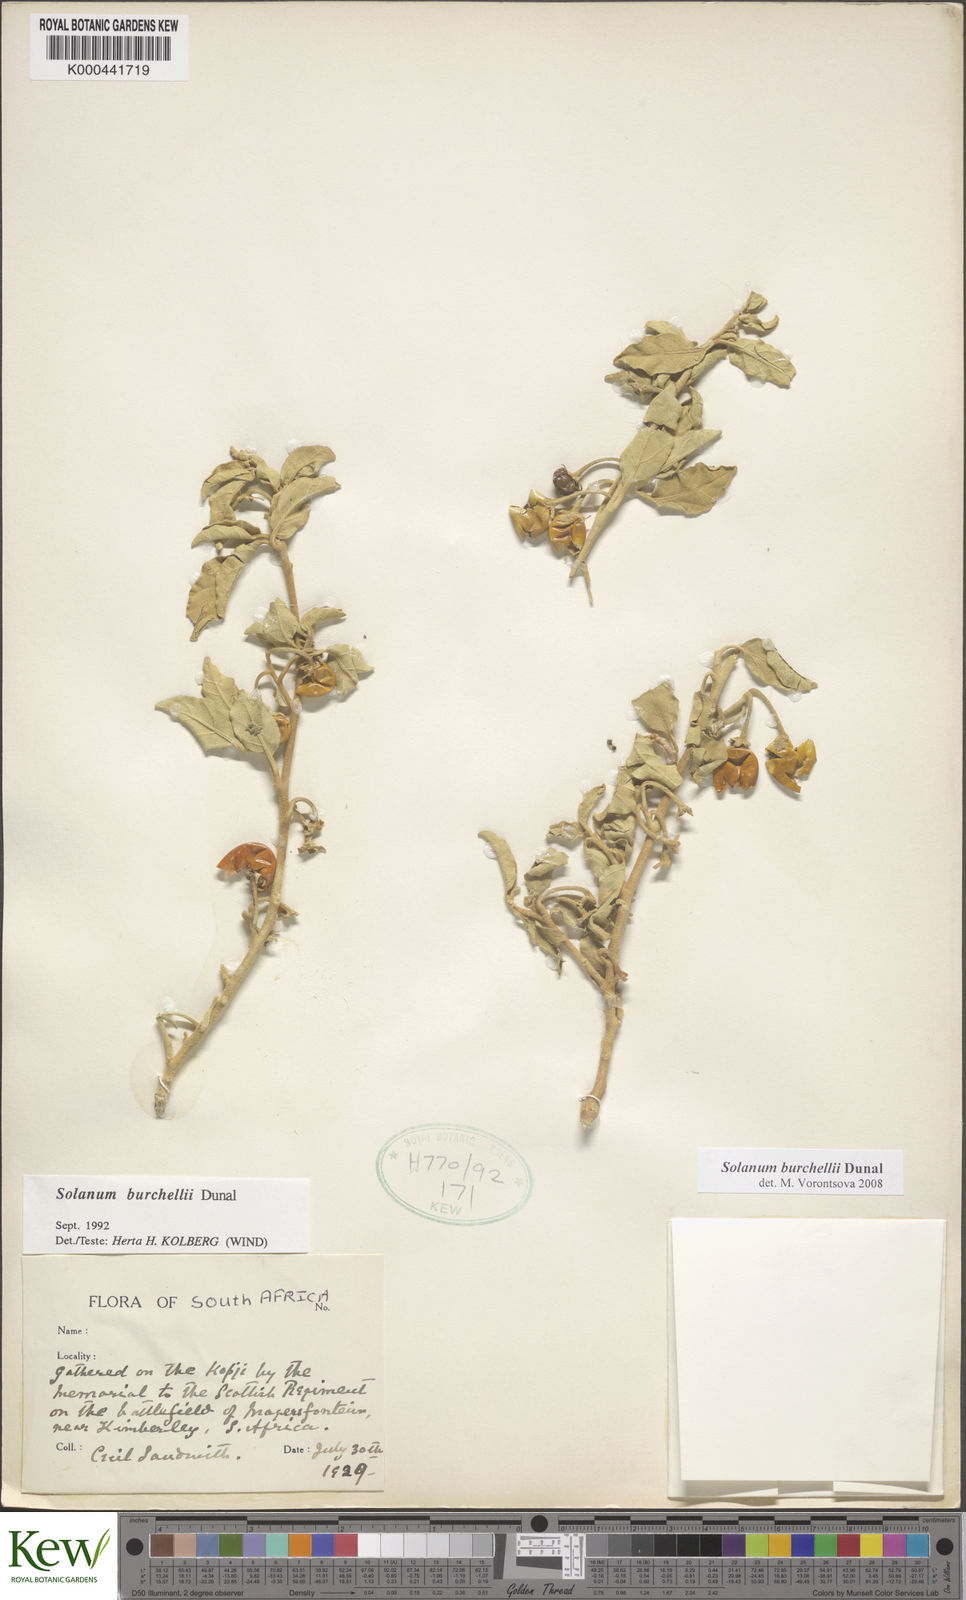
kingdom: Plantae
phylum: Tracheophyta
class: Magnoliopsida
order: Solanales
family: Solanaceae
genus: Solanum
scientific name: Solanum burchellii
